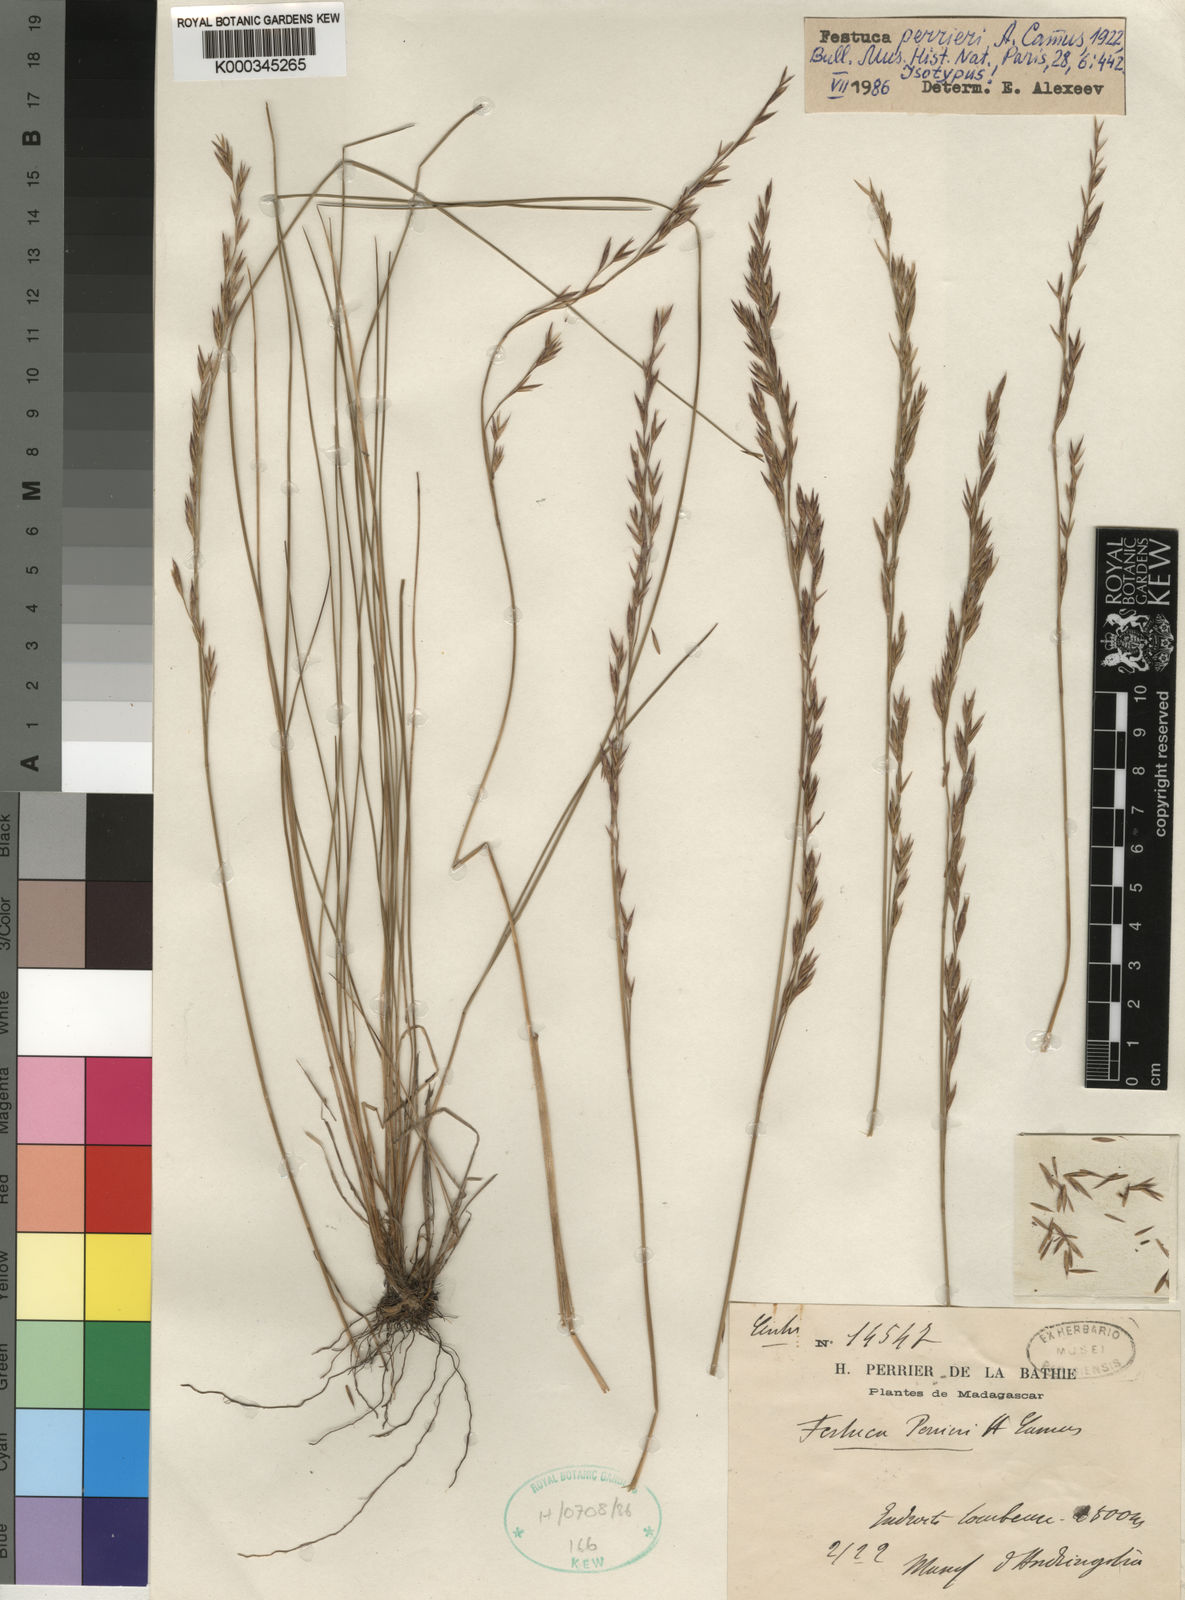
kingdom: Plantae
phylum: Tracheophyta
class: Liliopsida
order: Poales
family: Poaceae
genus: Festuca
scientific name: Festuca perrieri
